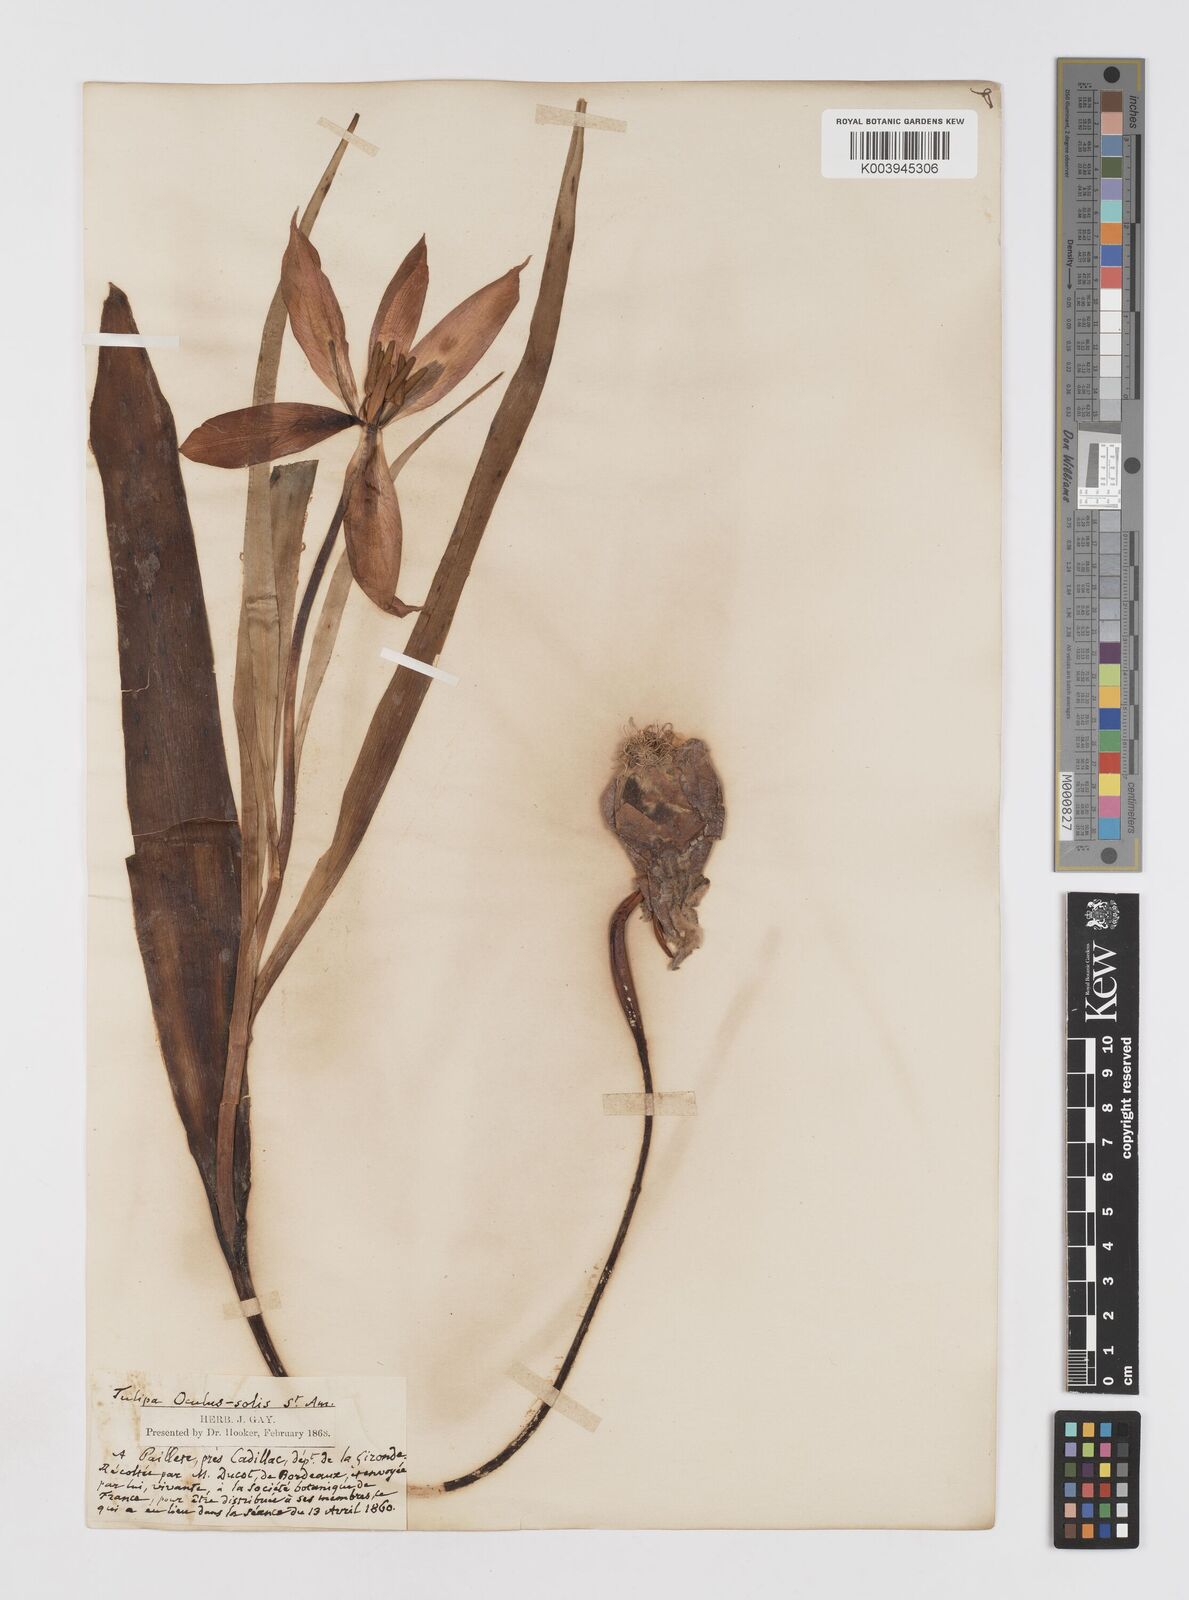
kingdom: Plantae
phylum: Tracheophyta
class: Liliopsida
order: Liliales
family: Liliaceae
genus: Tulipa
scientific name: Tulipa agenensis
